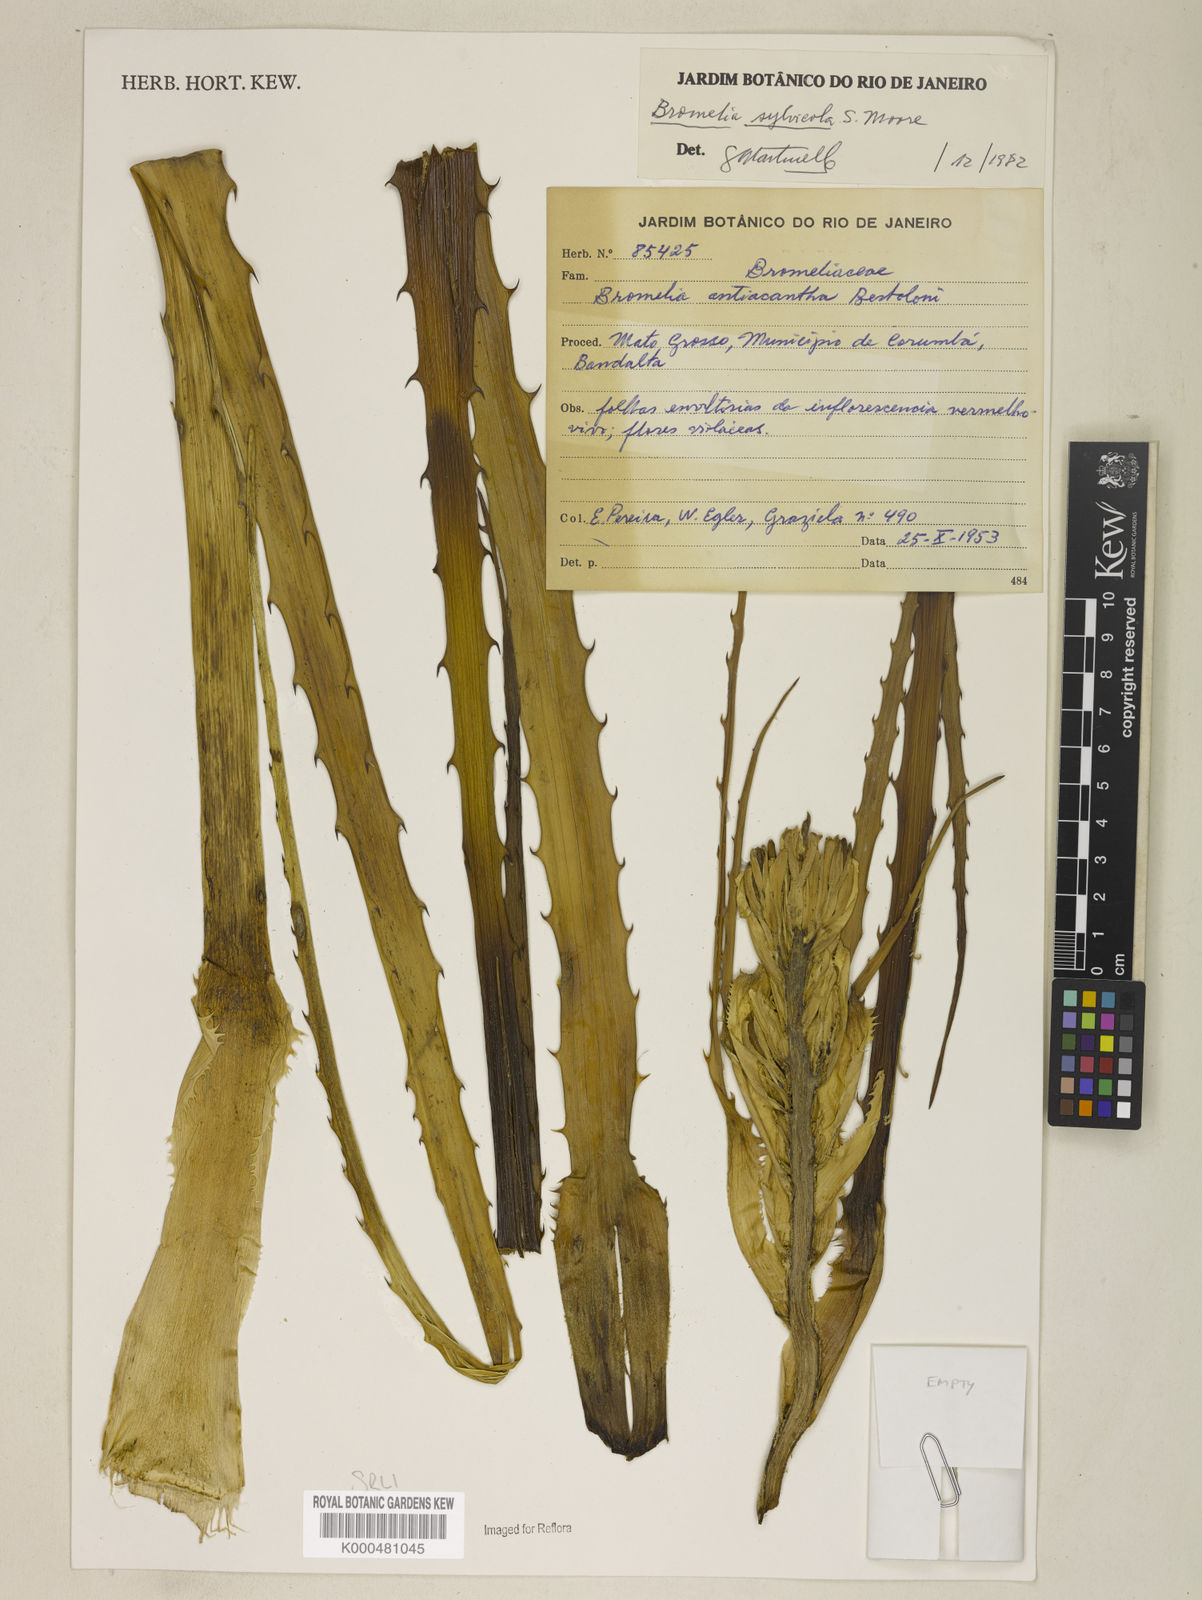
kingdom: Plantae
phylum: Tracheophyta
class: Liliopsida
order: Poales
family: Bromeliaceae
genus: Bromelia
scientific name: Bromelia sylvicola
